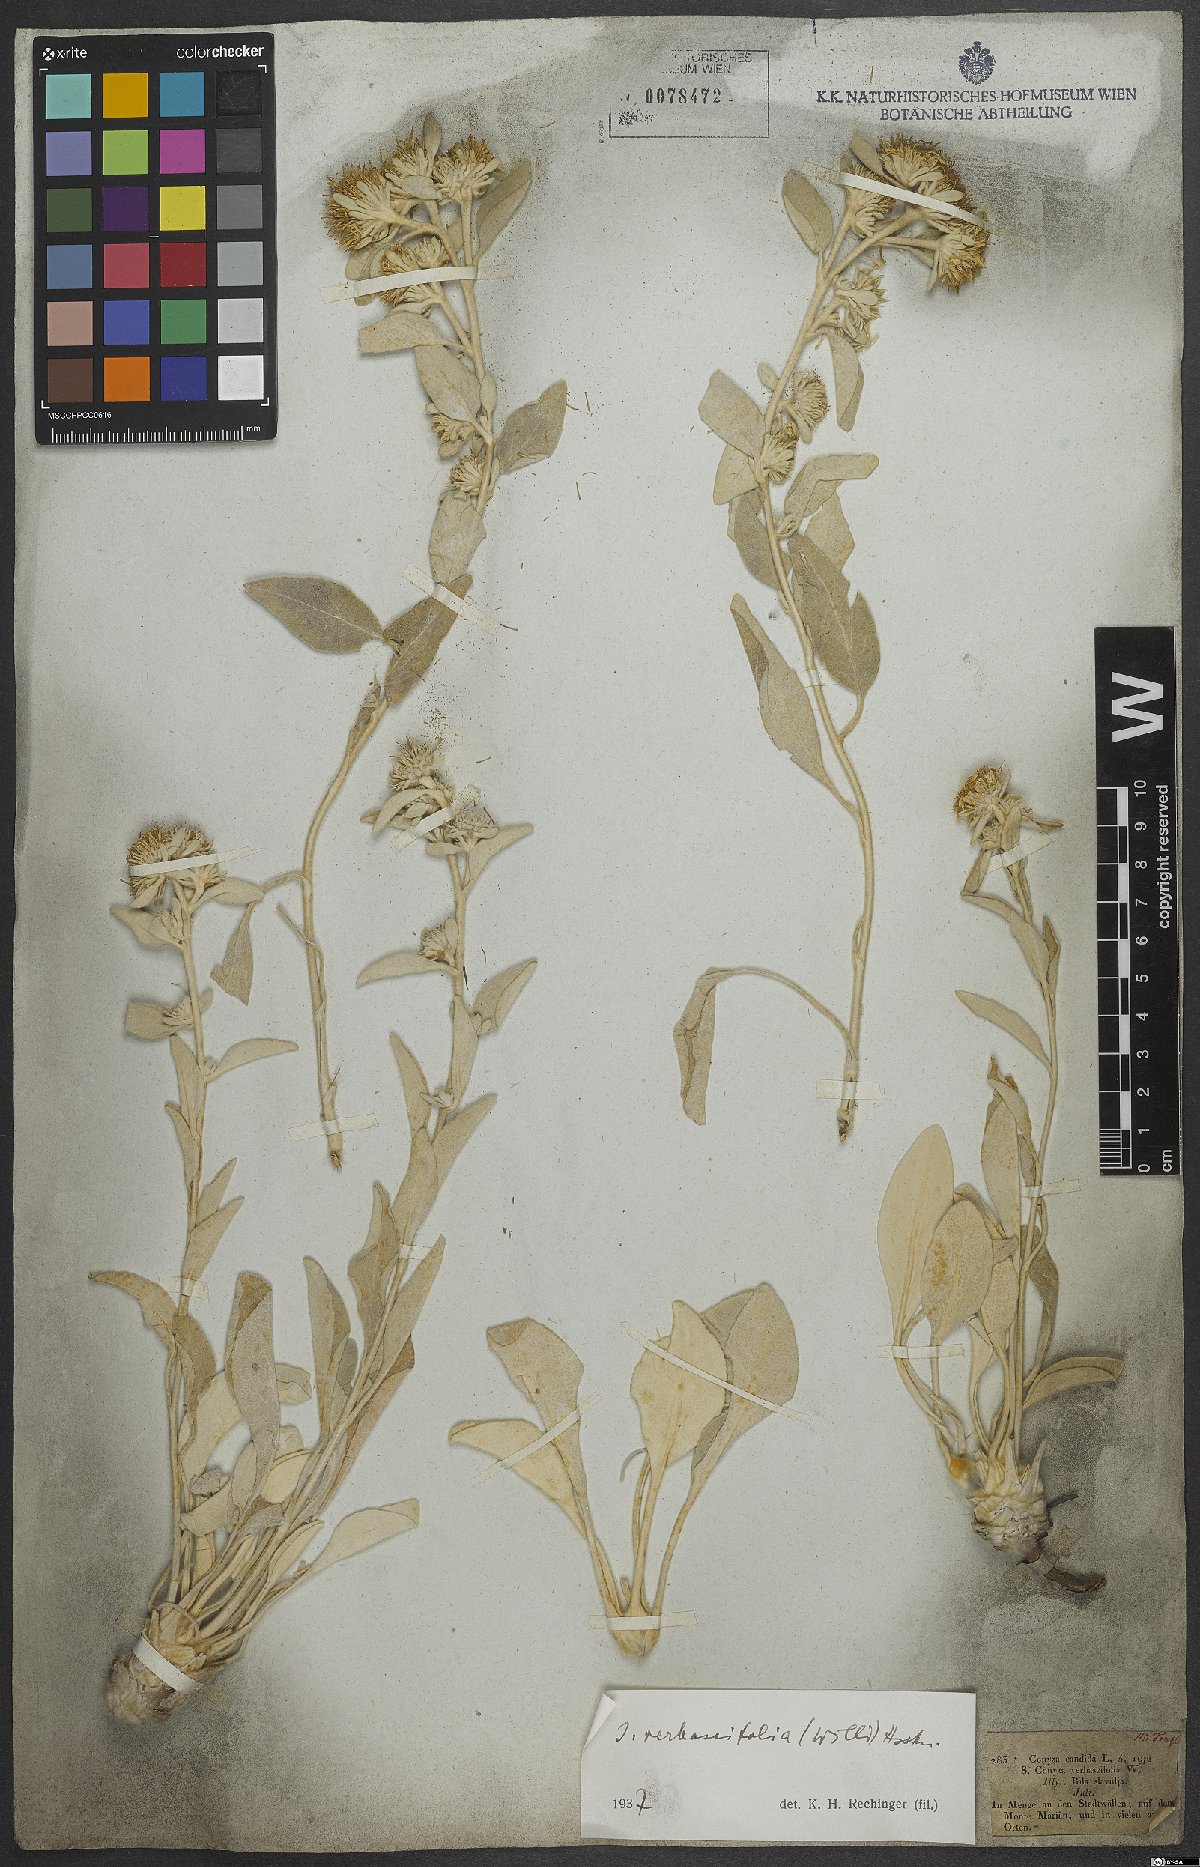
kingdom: Plantae
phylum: Tracheophyta
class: Magnoliopsida
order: Asterales
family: Asteraceae
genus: Pentanema
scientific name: Pentanema verbascifolium
